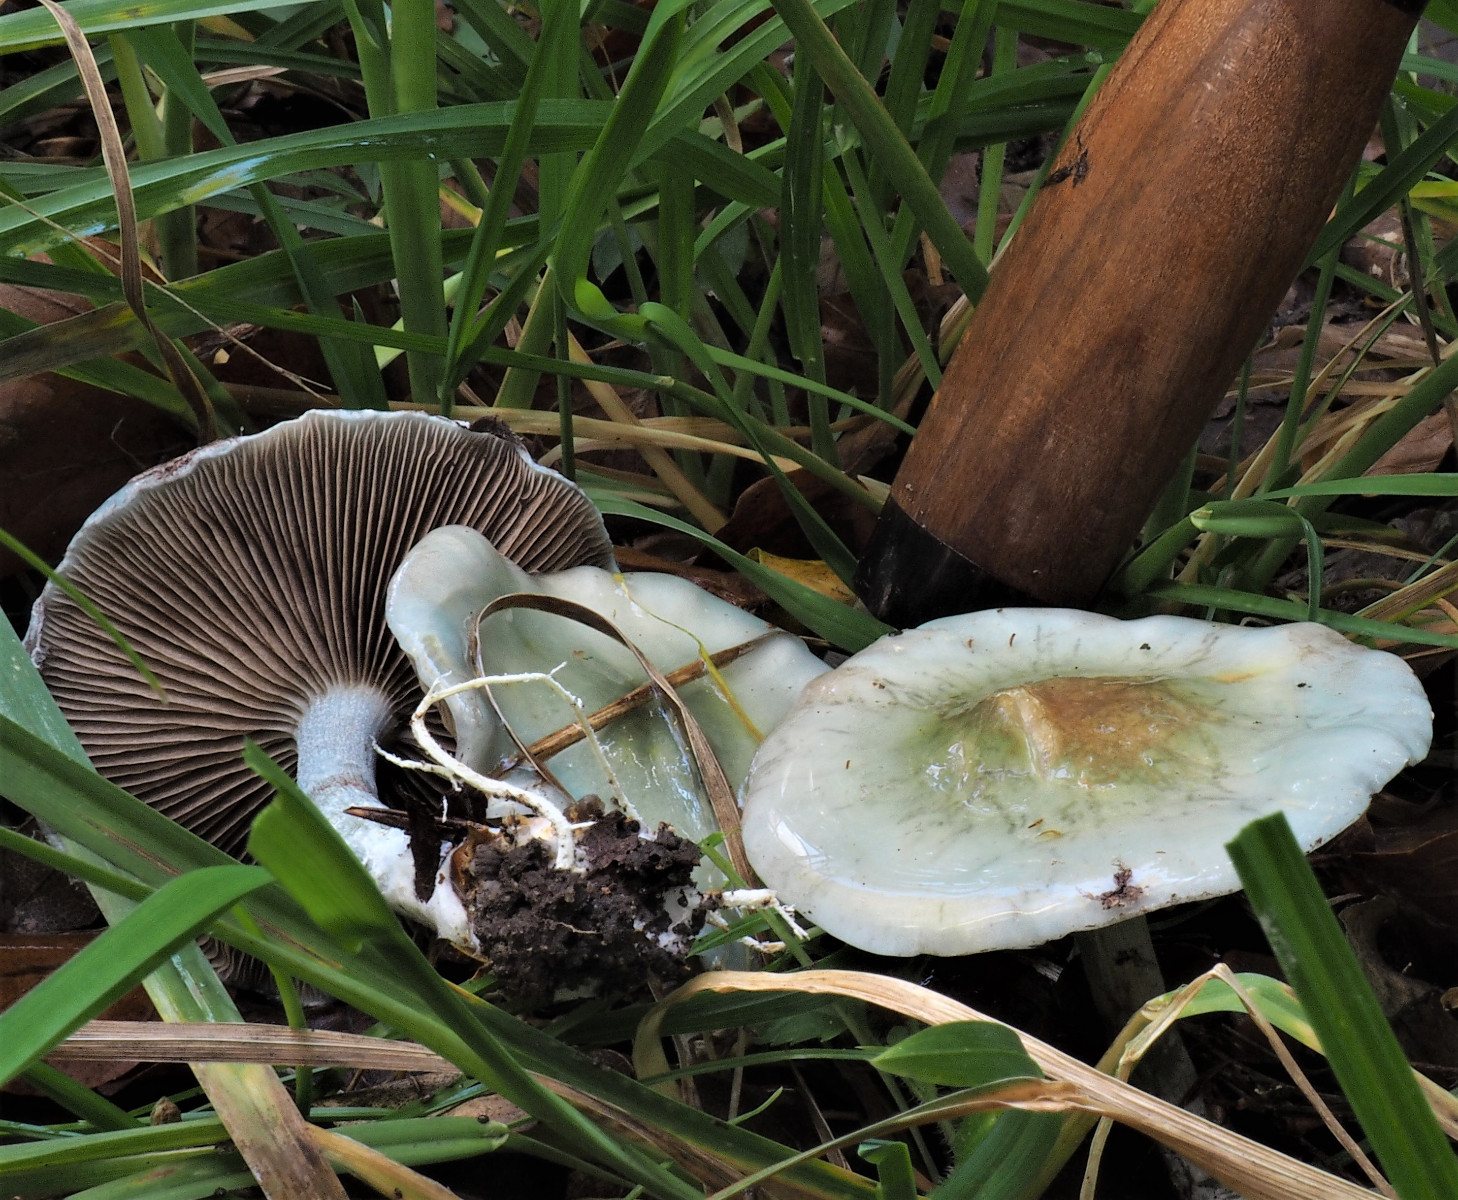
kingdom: Fungi
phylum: Basidiomycota
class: Agaricomycetes
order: Agaricales
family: Strophariaceae
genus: Stropharia
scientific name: Stropharia
